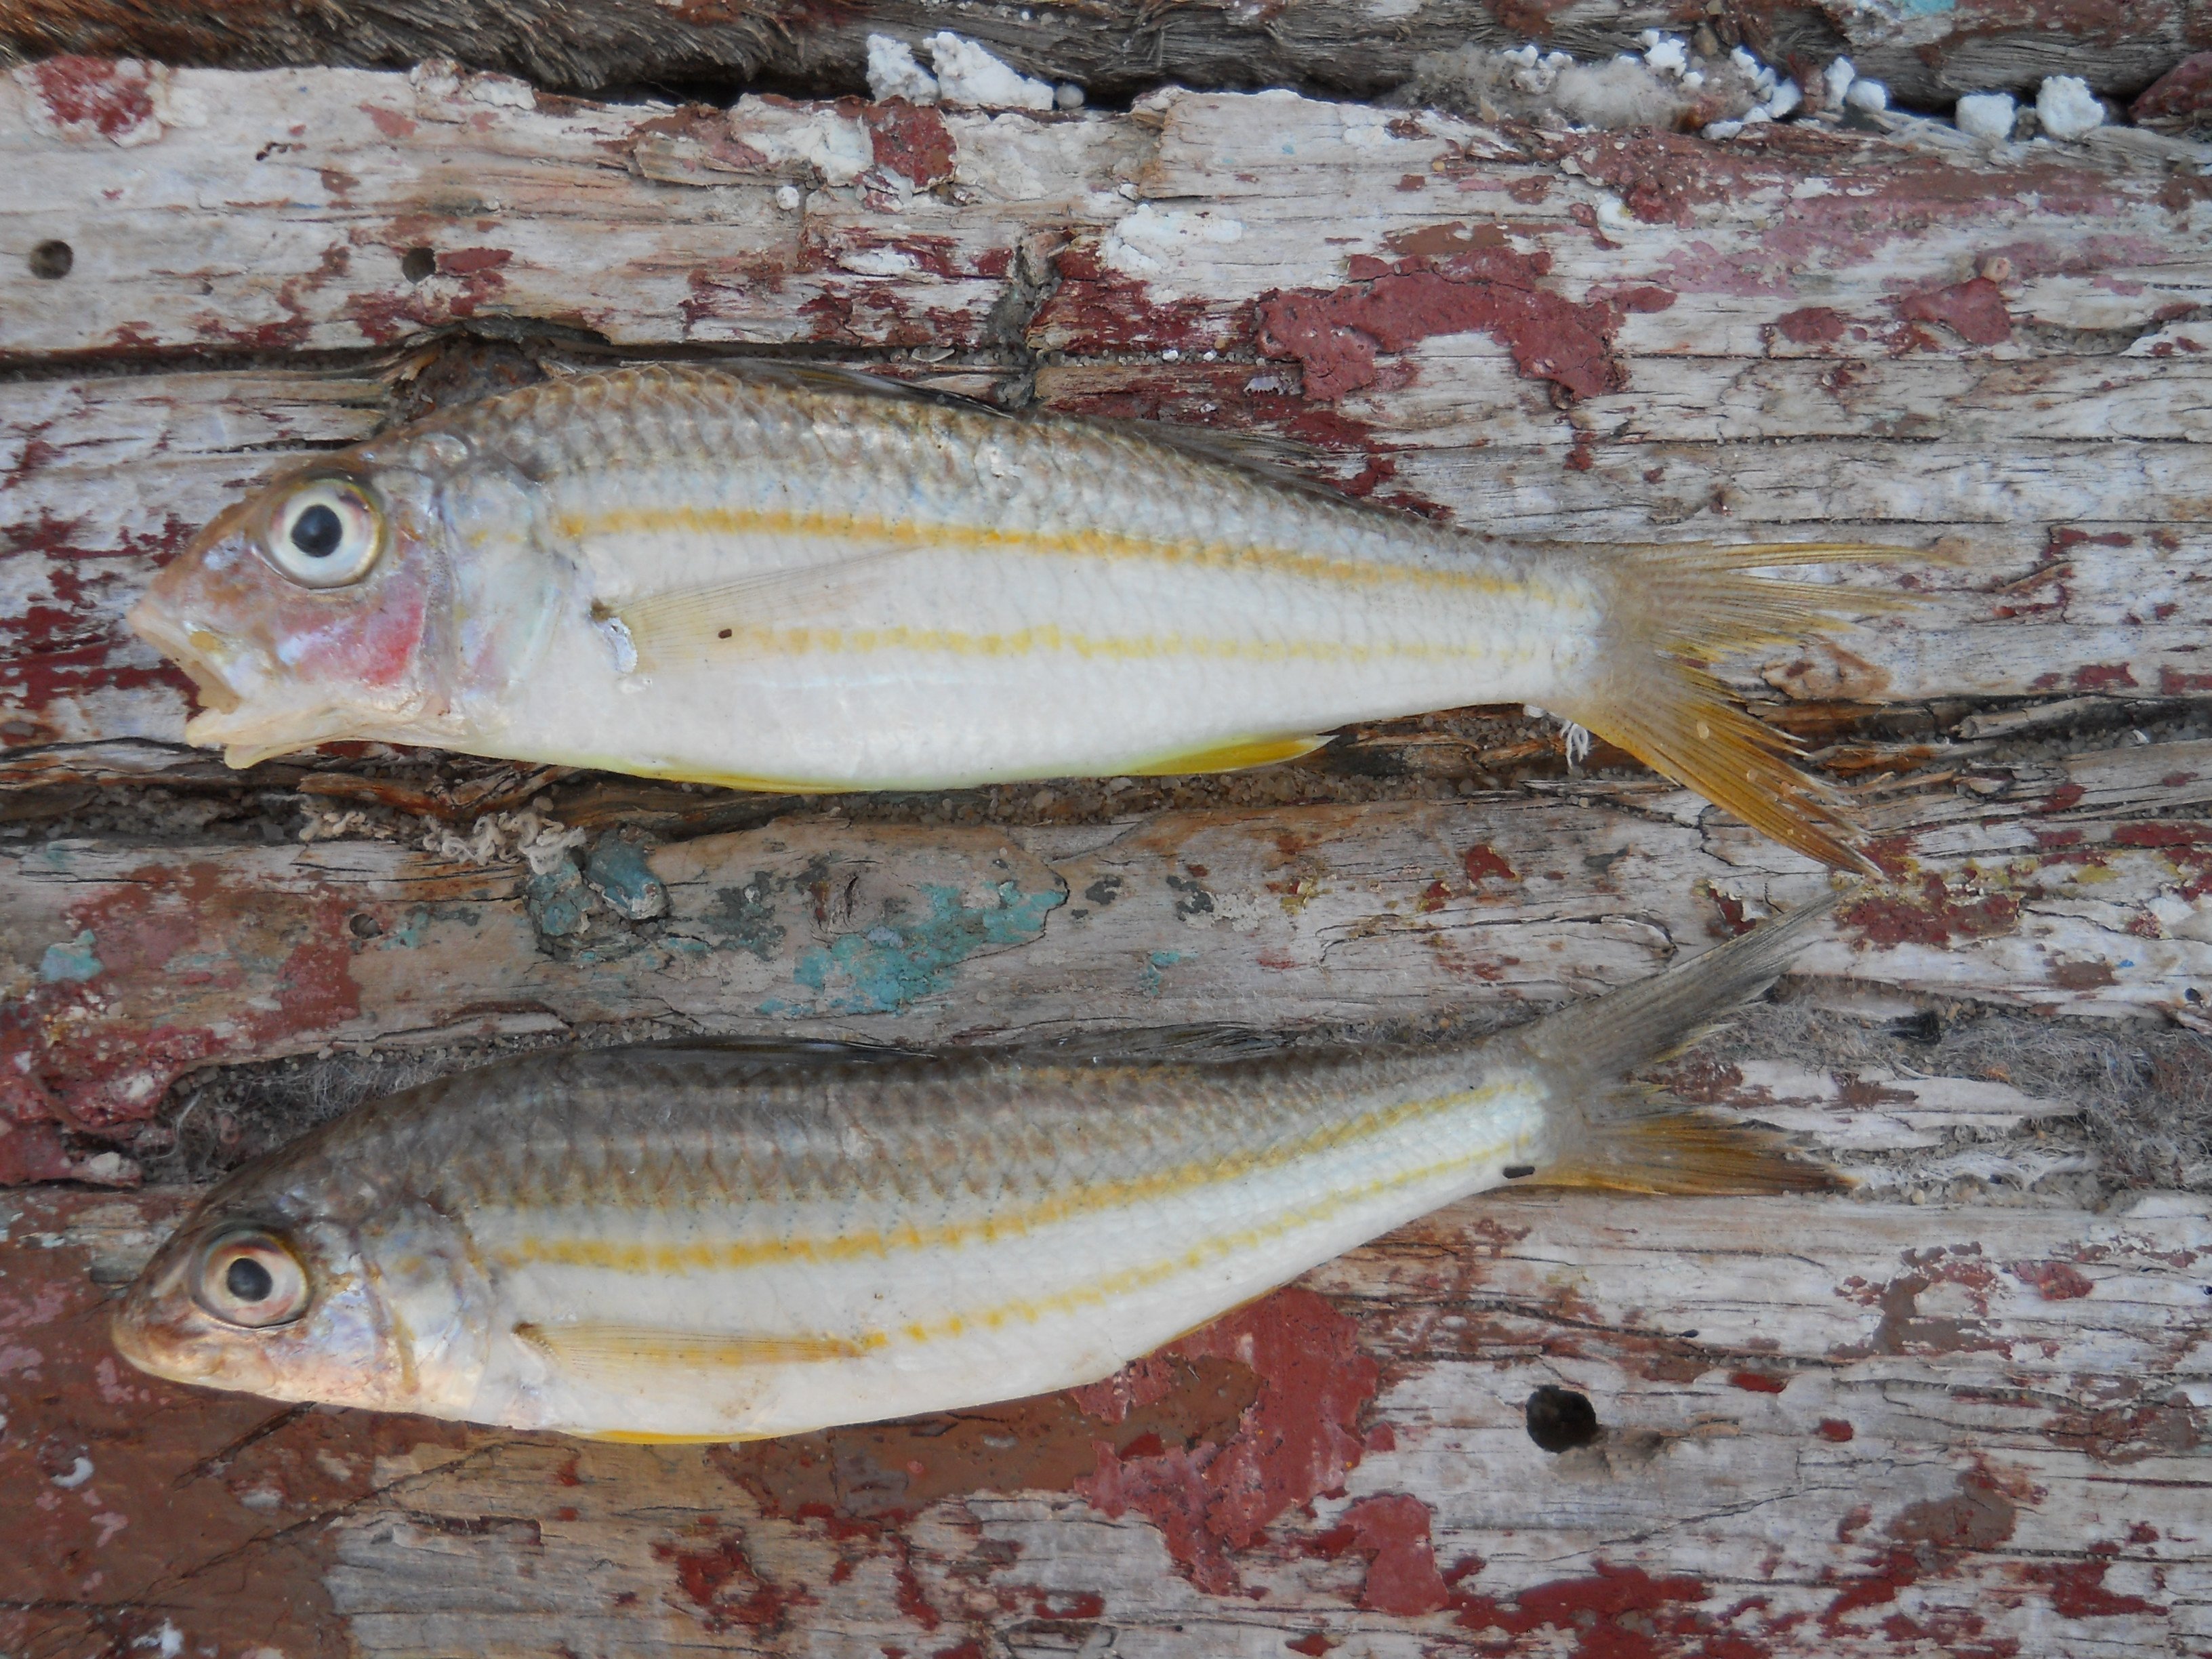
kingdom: Animalia
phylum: Chordata
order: Perciformes
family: Mullidae
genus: Upeneus
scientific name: Upeneus sulphureus
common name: Sulphur goatfish
